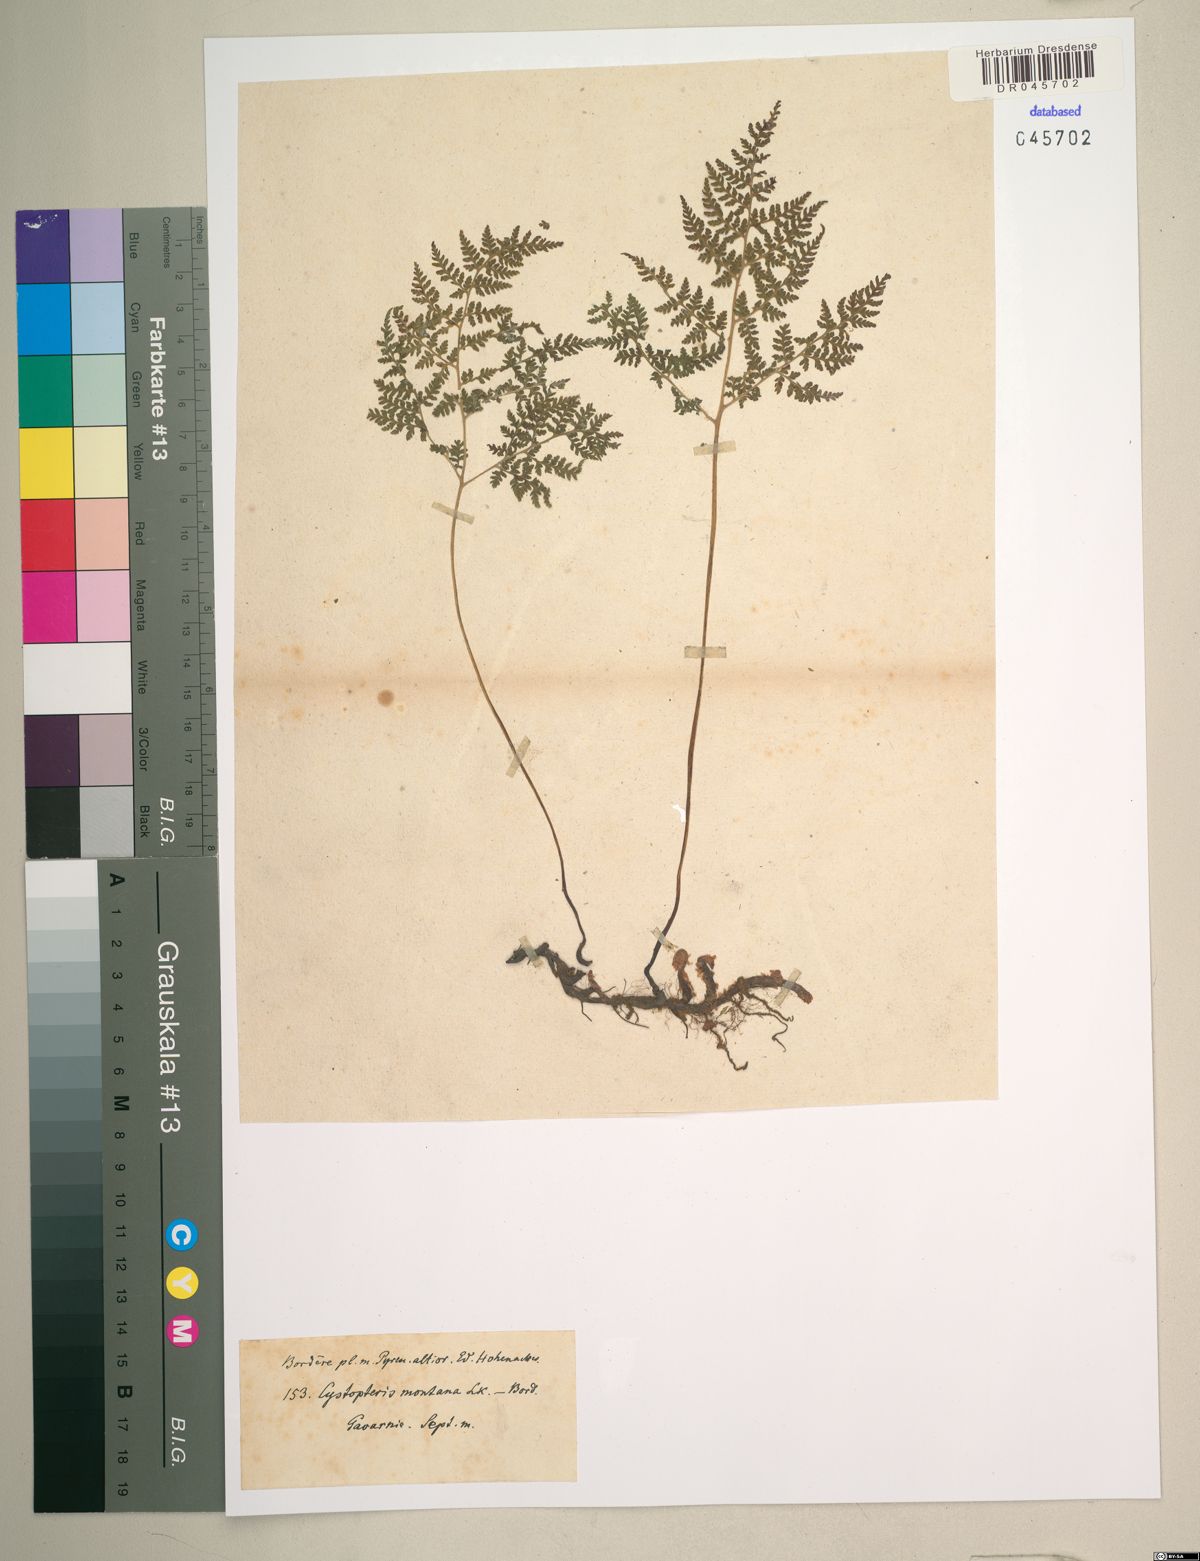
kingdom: Plantae
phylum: Tracheophyta
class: Polypodiopsida
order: Polypodiales
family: Cystopteridaceae
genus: Cystopteris
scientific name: Cystopteris montana
